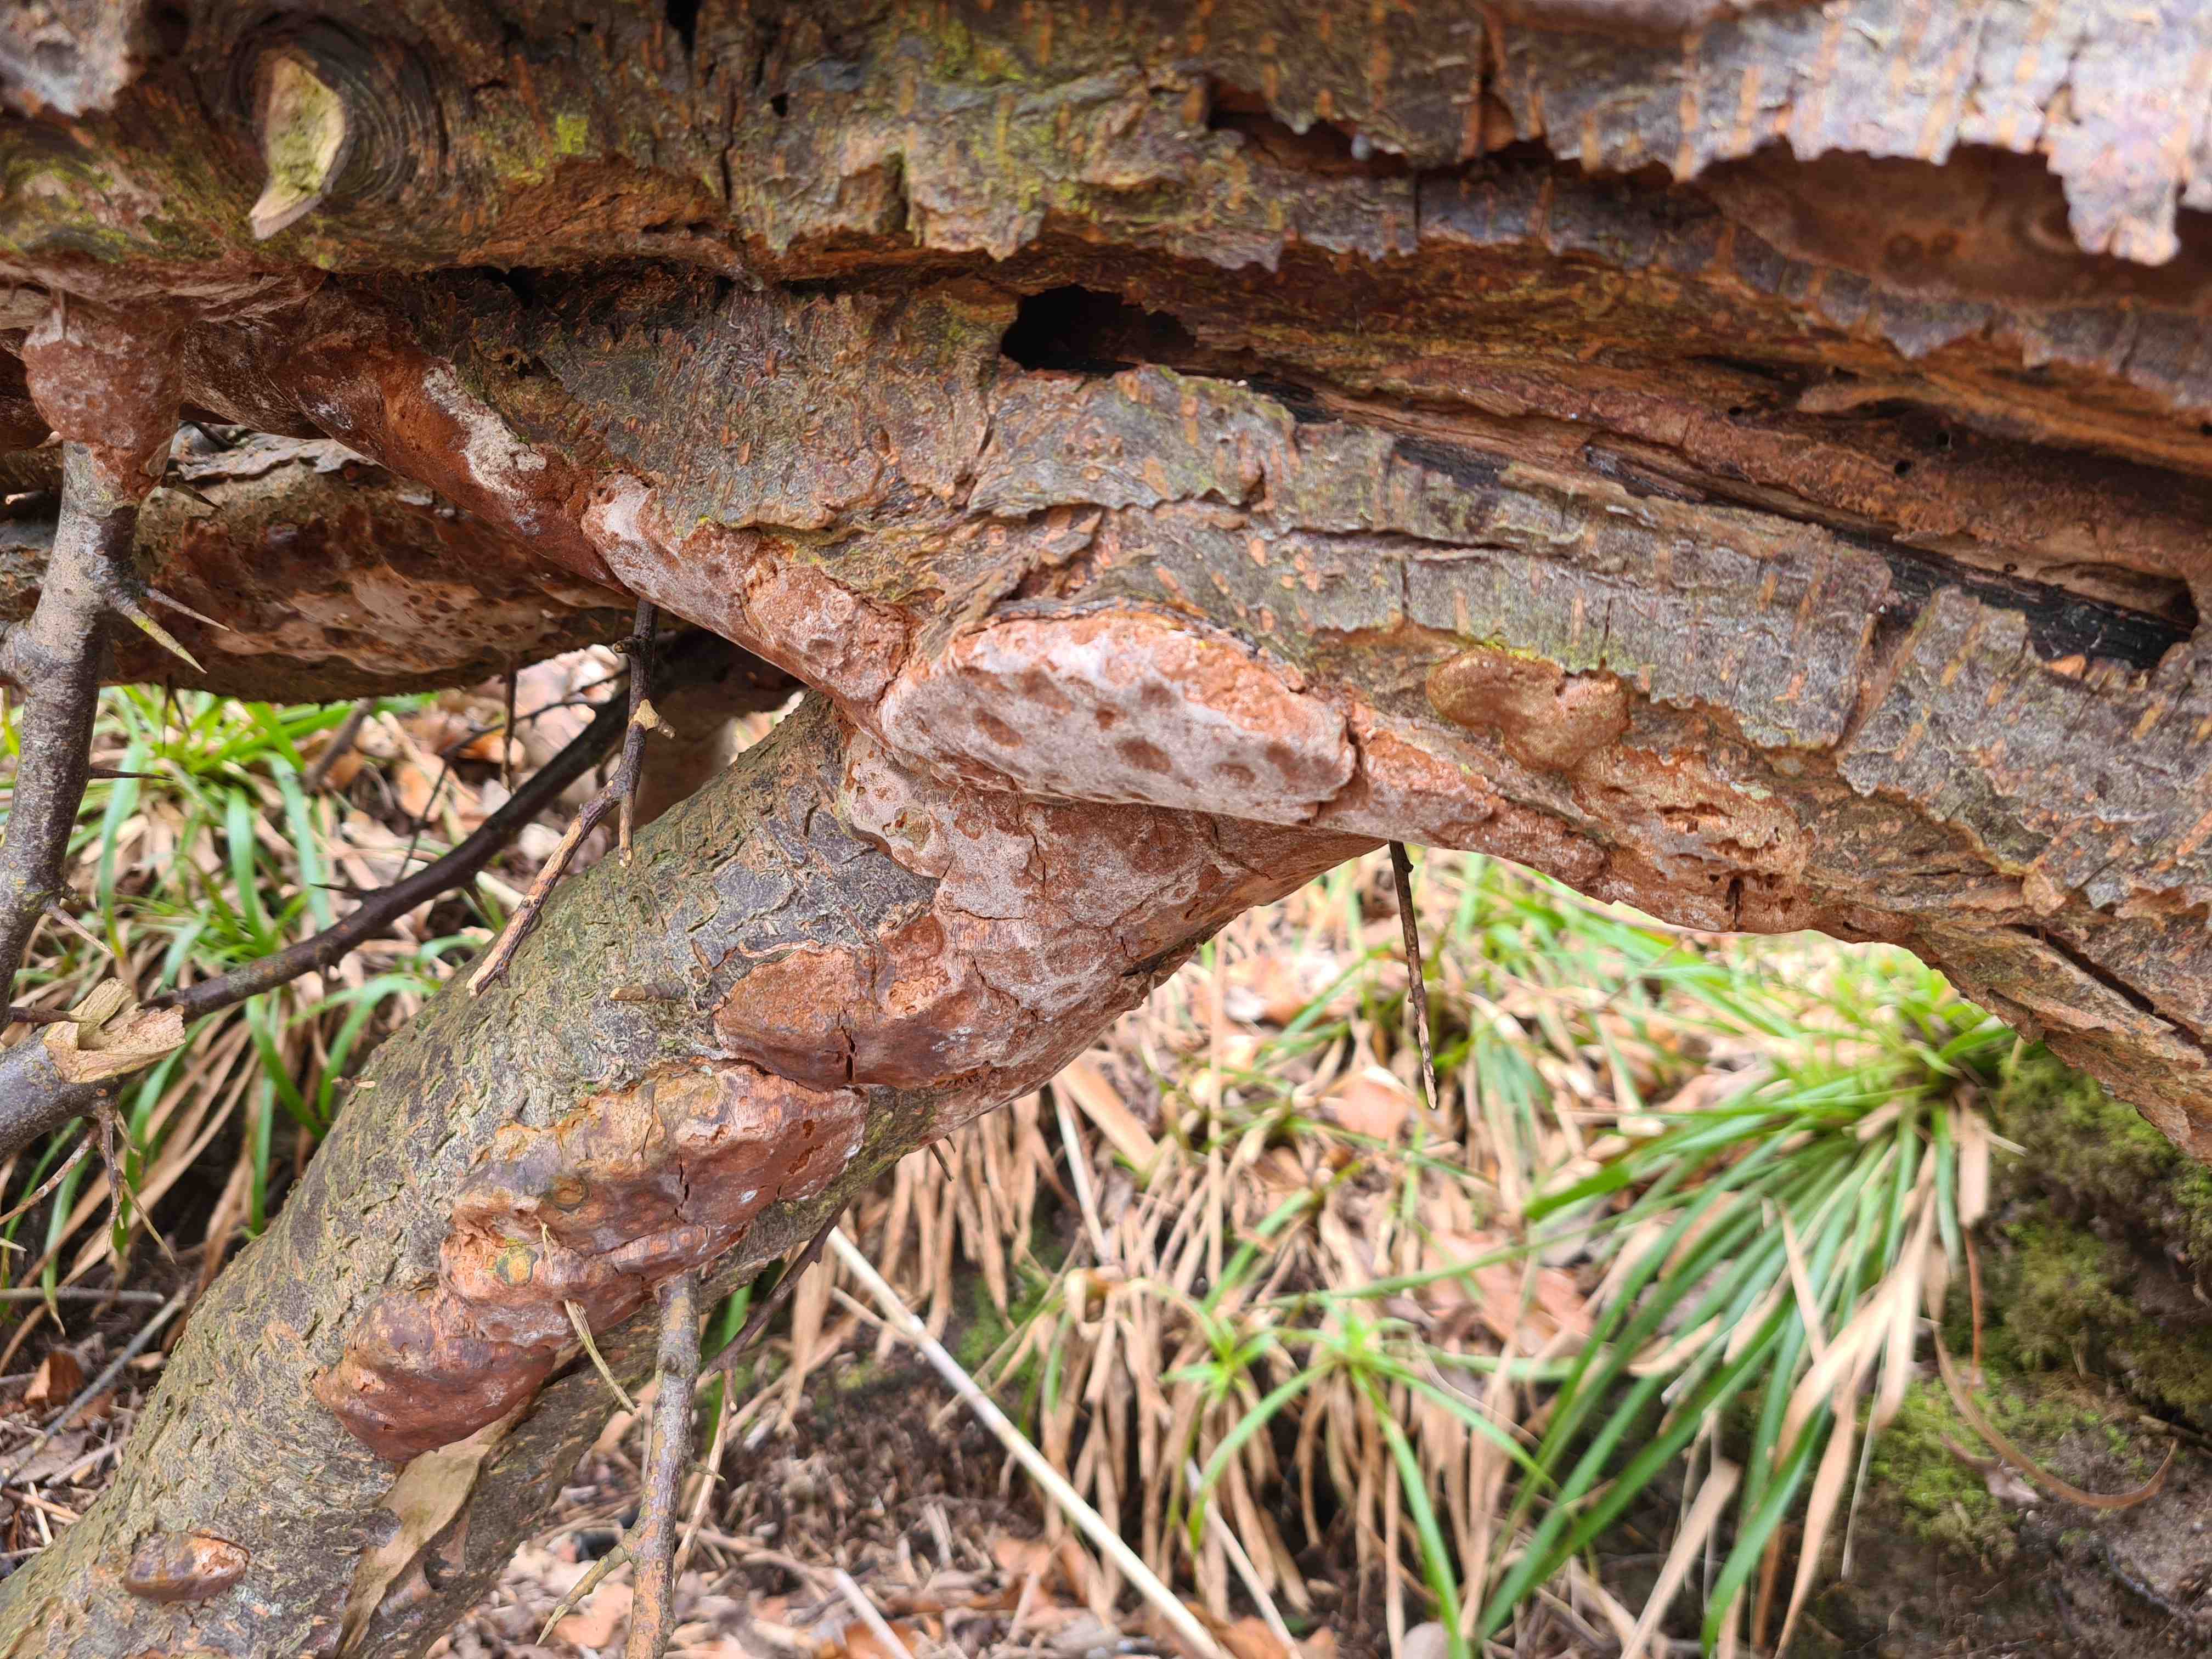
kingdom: Fungi
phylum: Basidiomycota
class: Agaricomycetes
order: Hymenochaetales
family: Hymenochaetaceae
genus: Phellinus
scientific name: Phellinus pomaceus
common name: blomme-ildporesvamp
